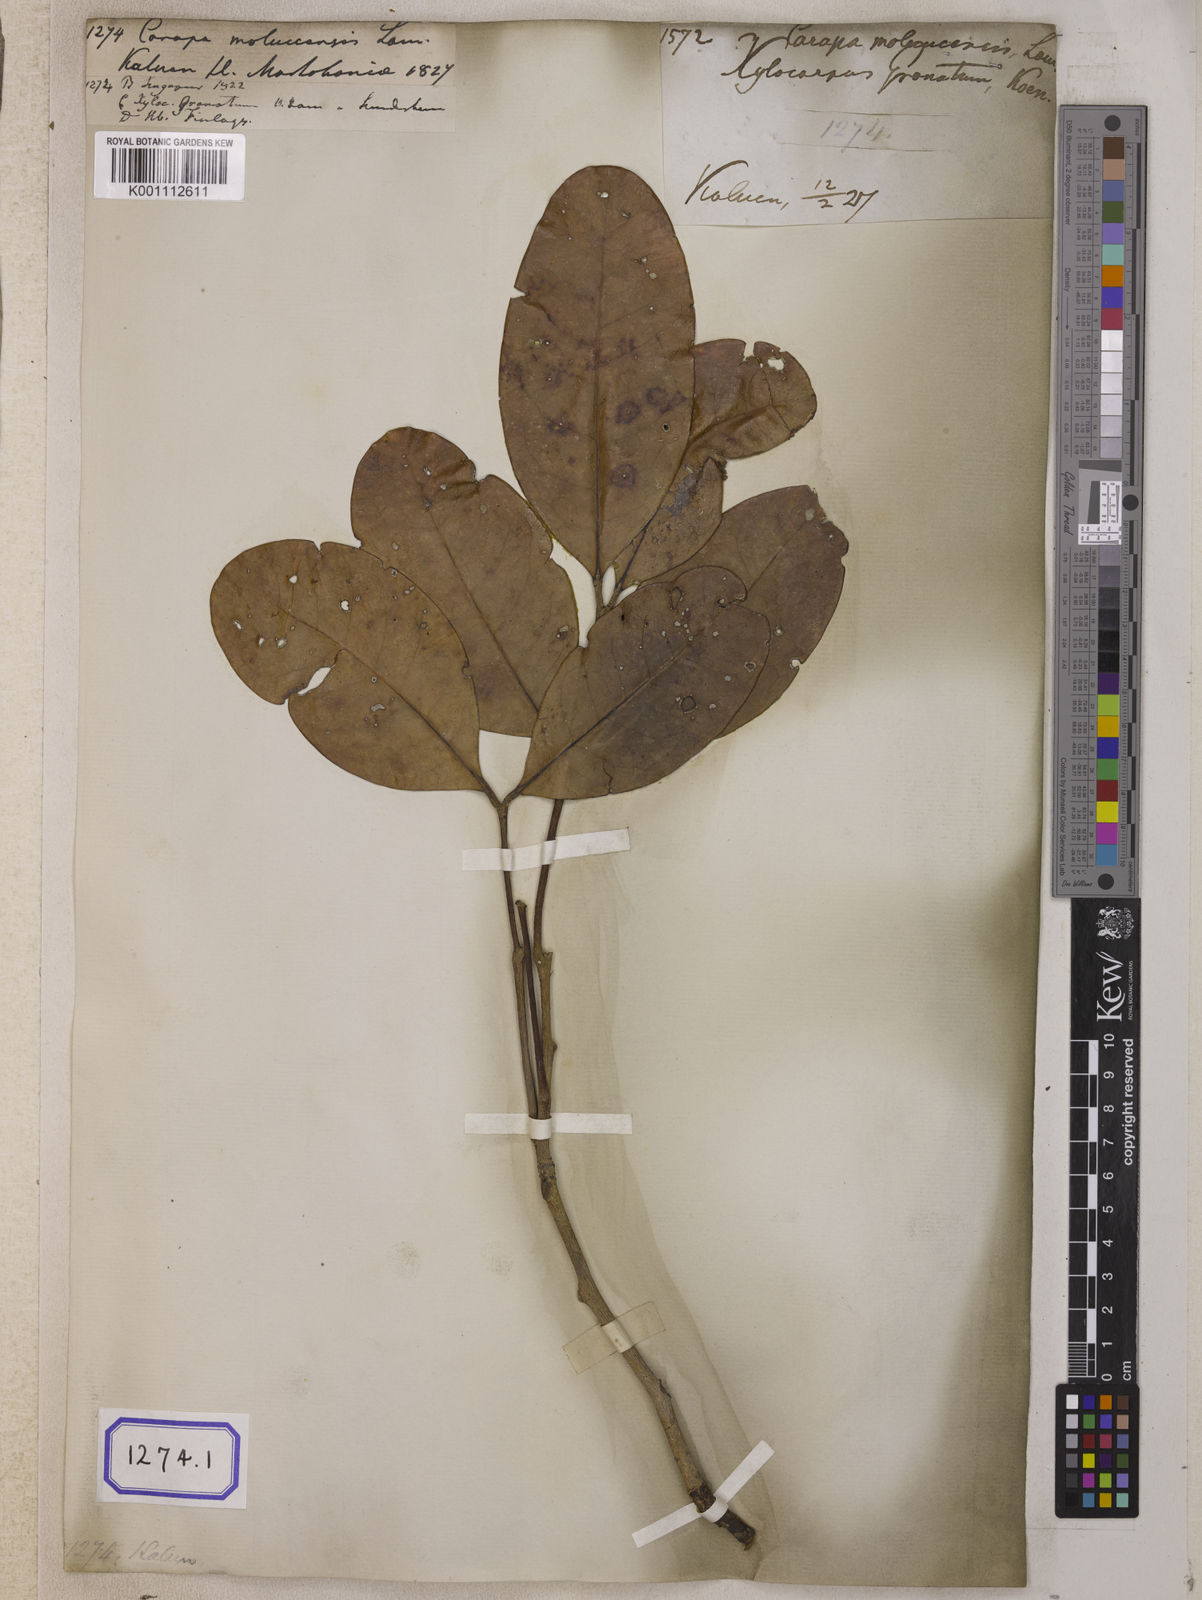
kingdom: Plantae
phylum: Tracheophyta
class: Magnoliopsida
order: Sapindales
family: Meliaceae
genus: Xylocarpus
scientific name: Xylocarpus moluccensis
